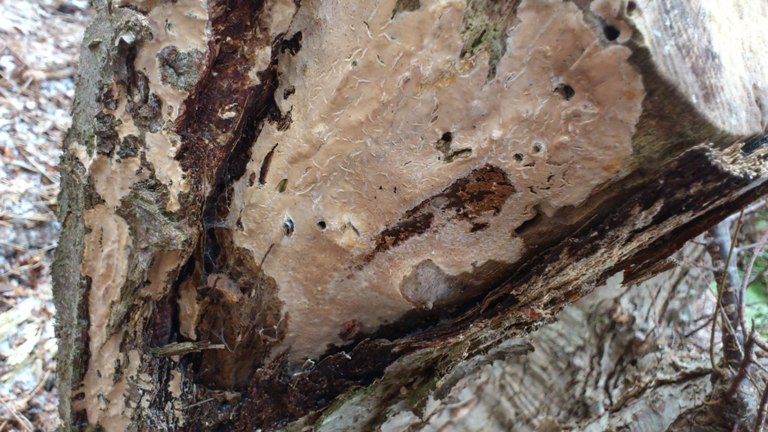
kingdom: Fungi
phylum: Basidiomycota
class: Agaricomycetes
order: Agaricales
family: Physalacriaceae
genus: Cylindrobasidium
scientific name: Cylindrobasidium evolvens
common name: sprækkehinde
